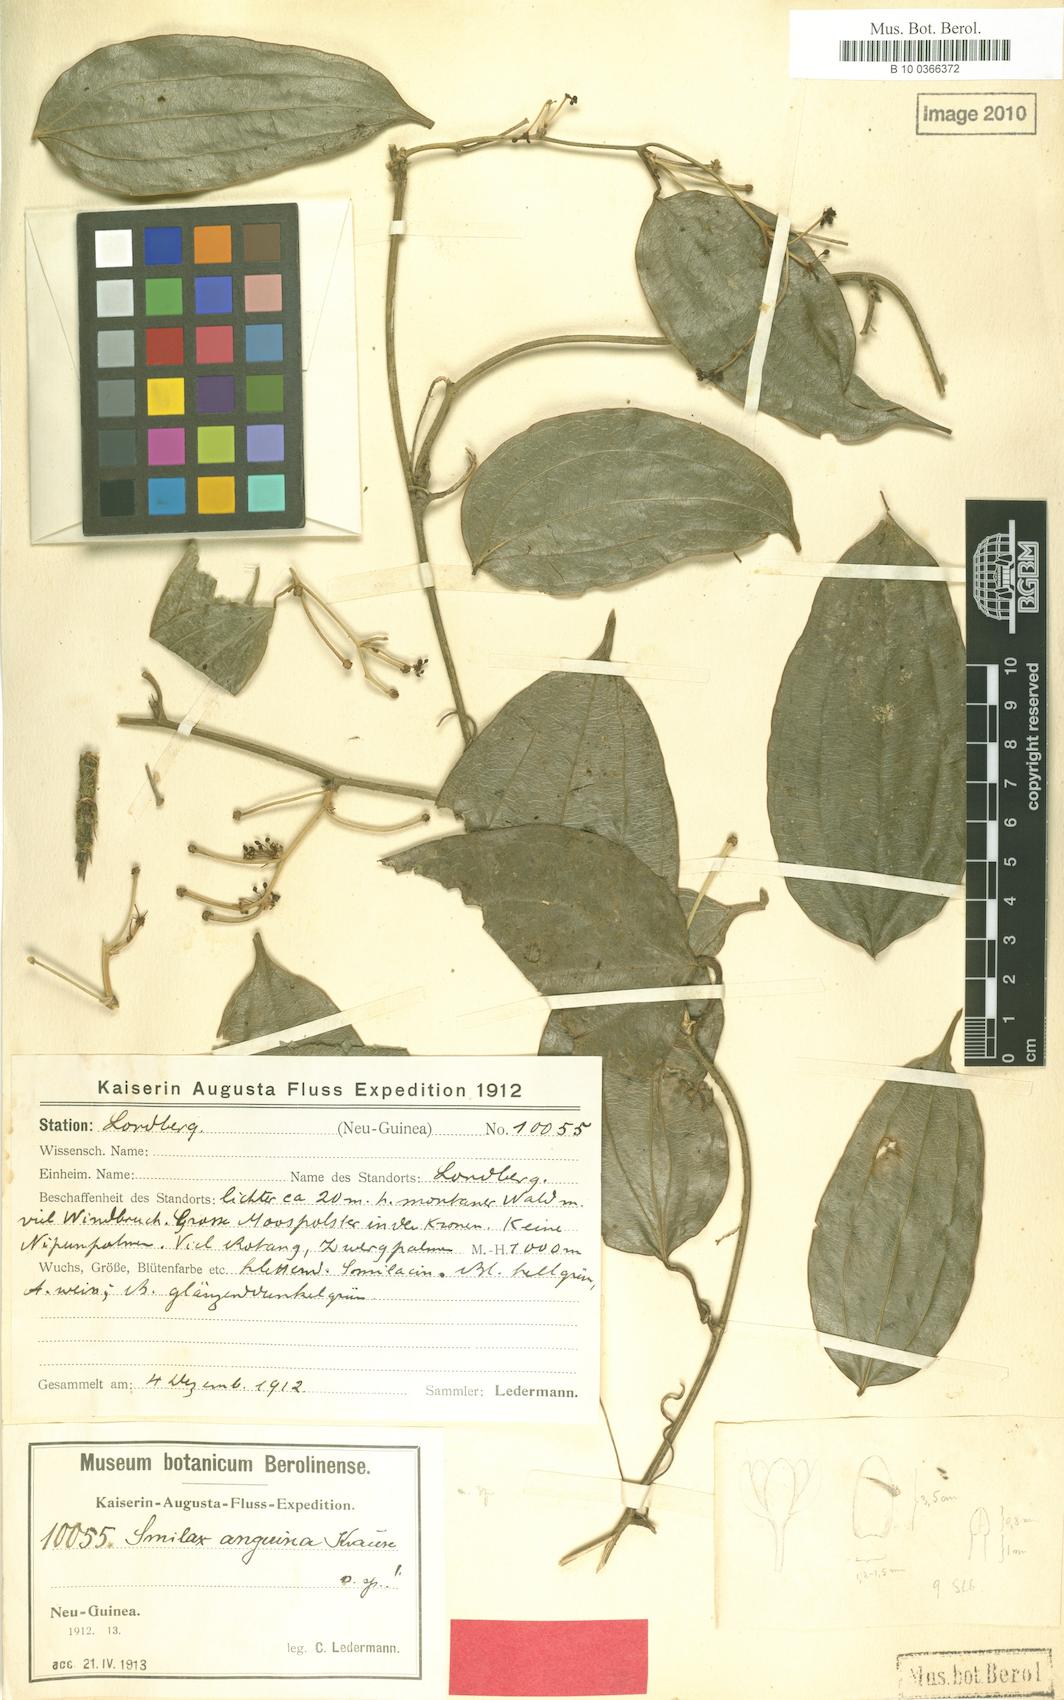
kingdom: Plantae
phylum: Tracheophyta
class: Liliopsida
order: Liliales
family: Smilacaceae
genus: Smilax
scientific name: Smilax anguina
